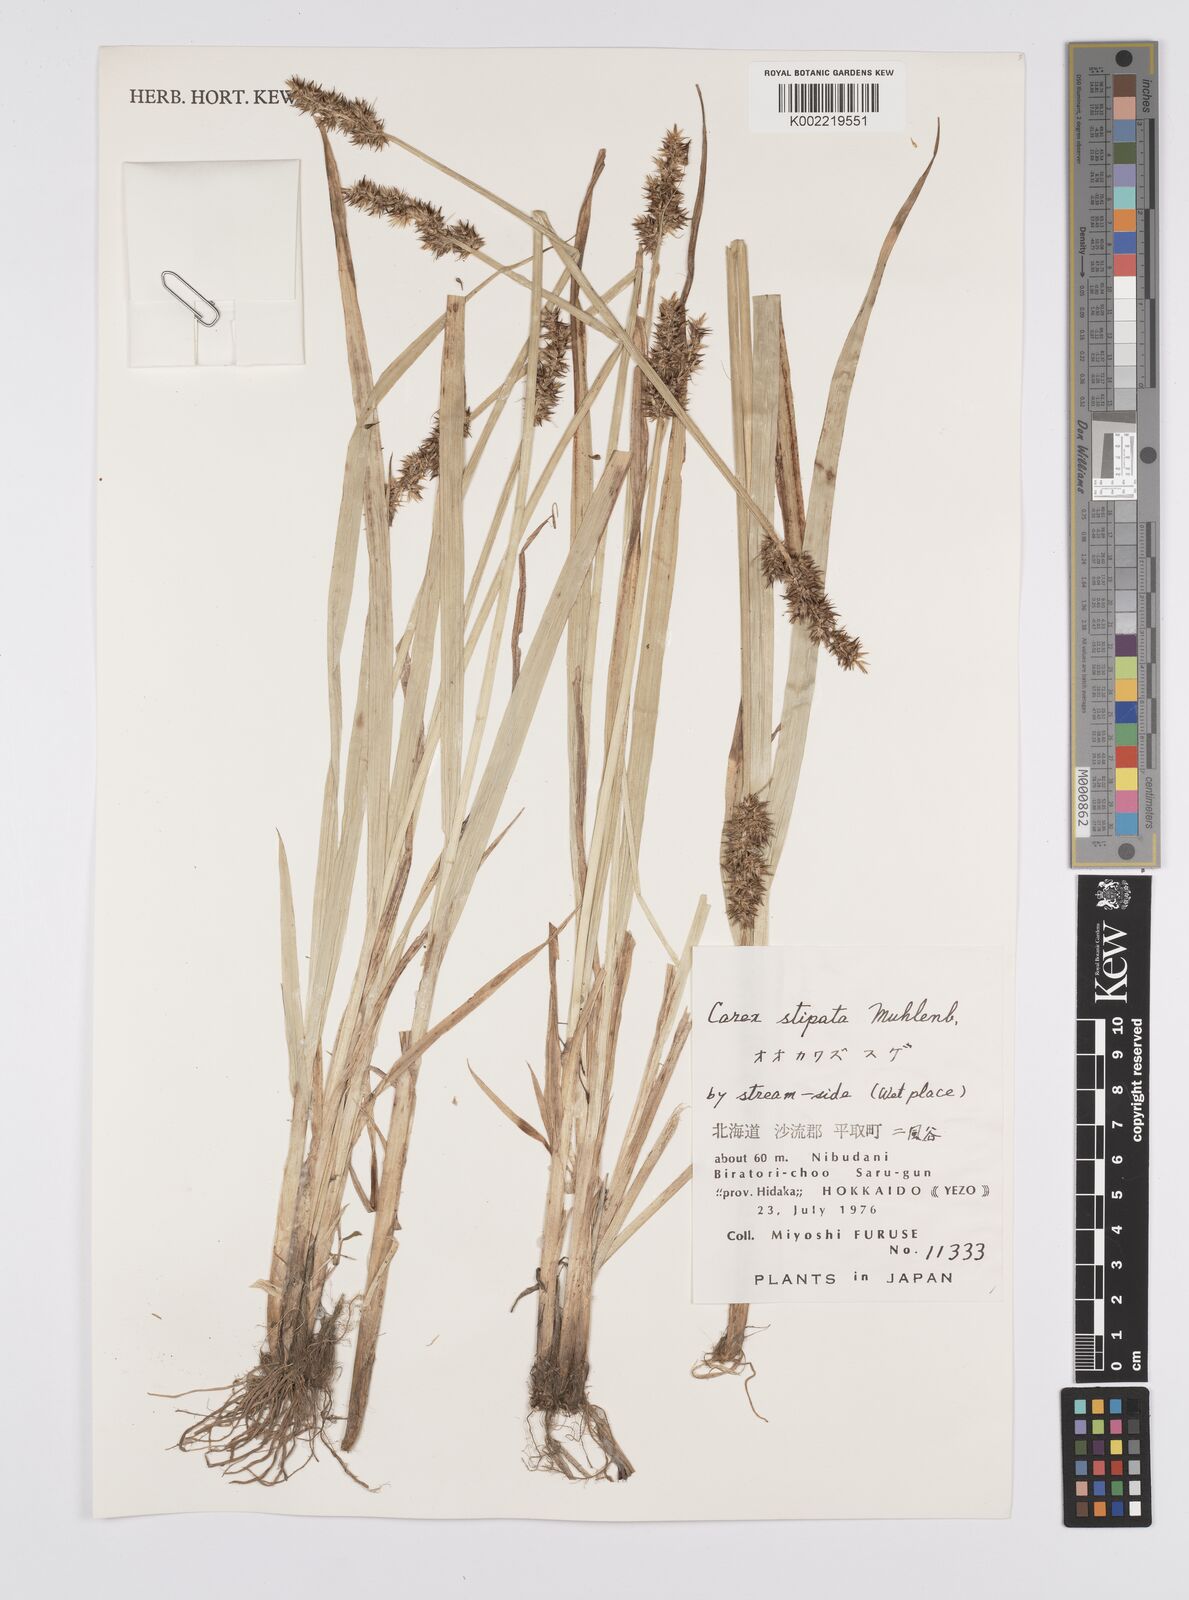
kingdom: Plantae
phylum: Tracheophyta
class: Liliopsida
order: Poales
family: Cyperaceae
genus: Carex
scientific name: Carex stipata
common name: Awl-fruited sedge
